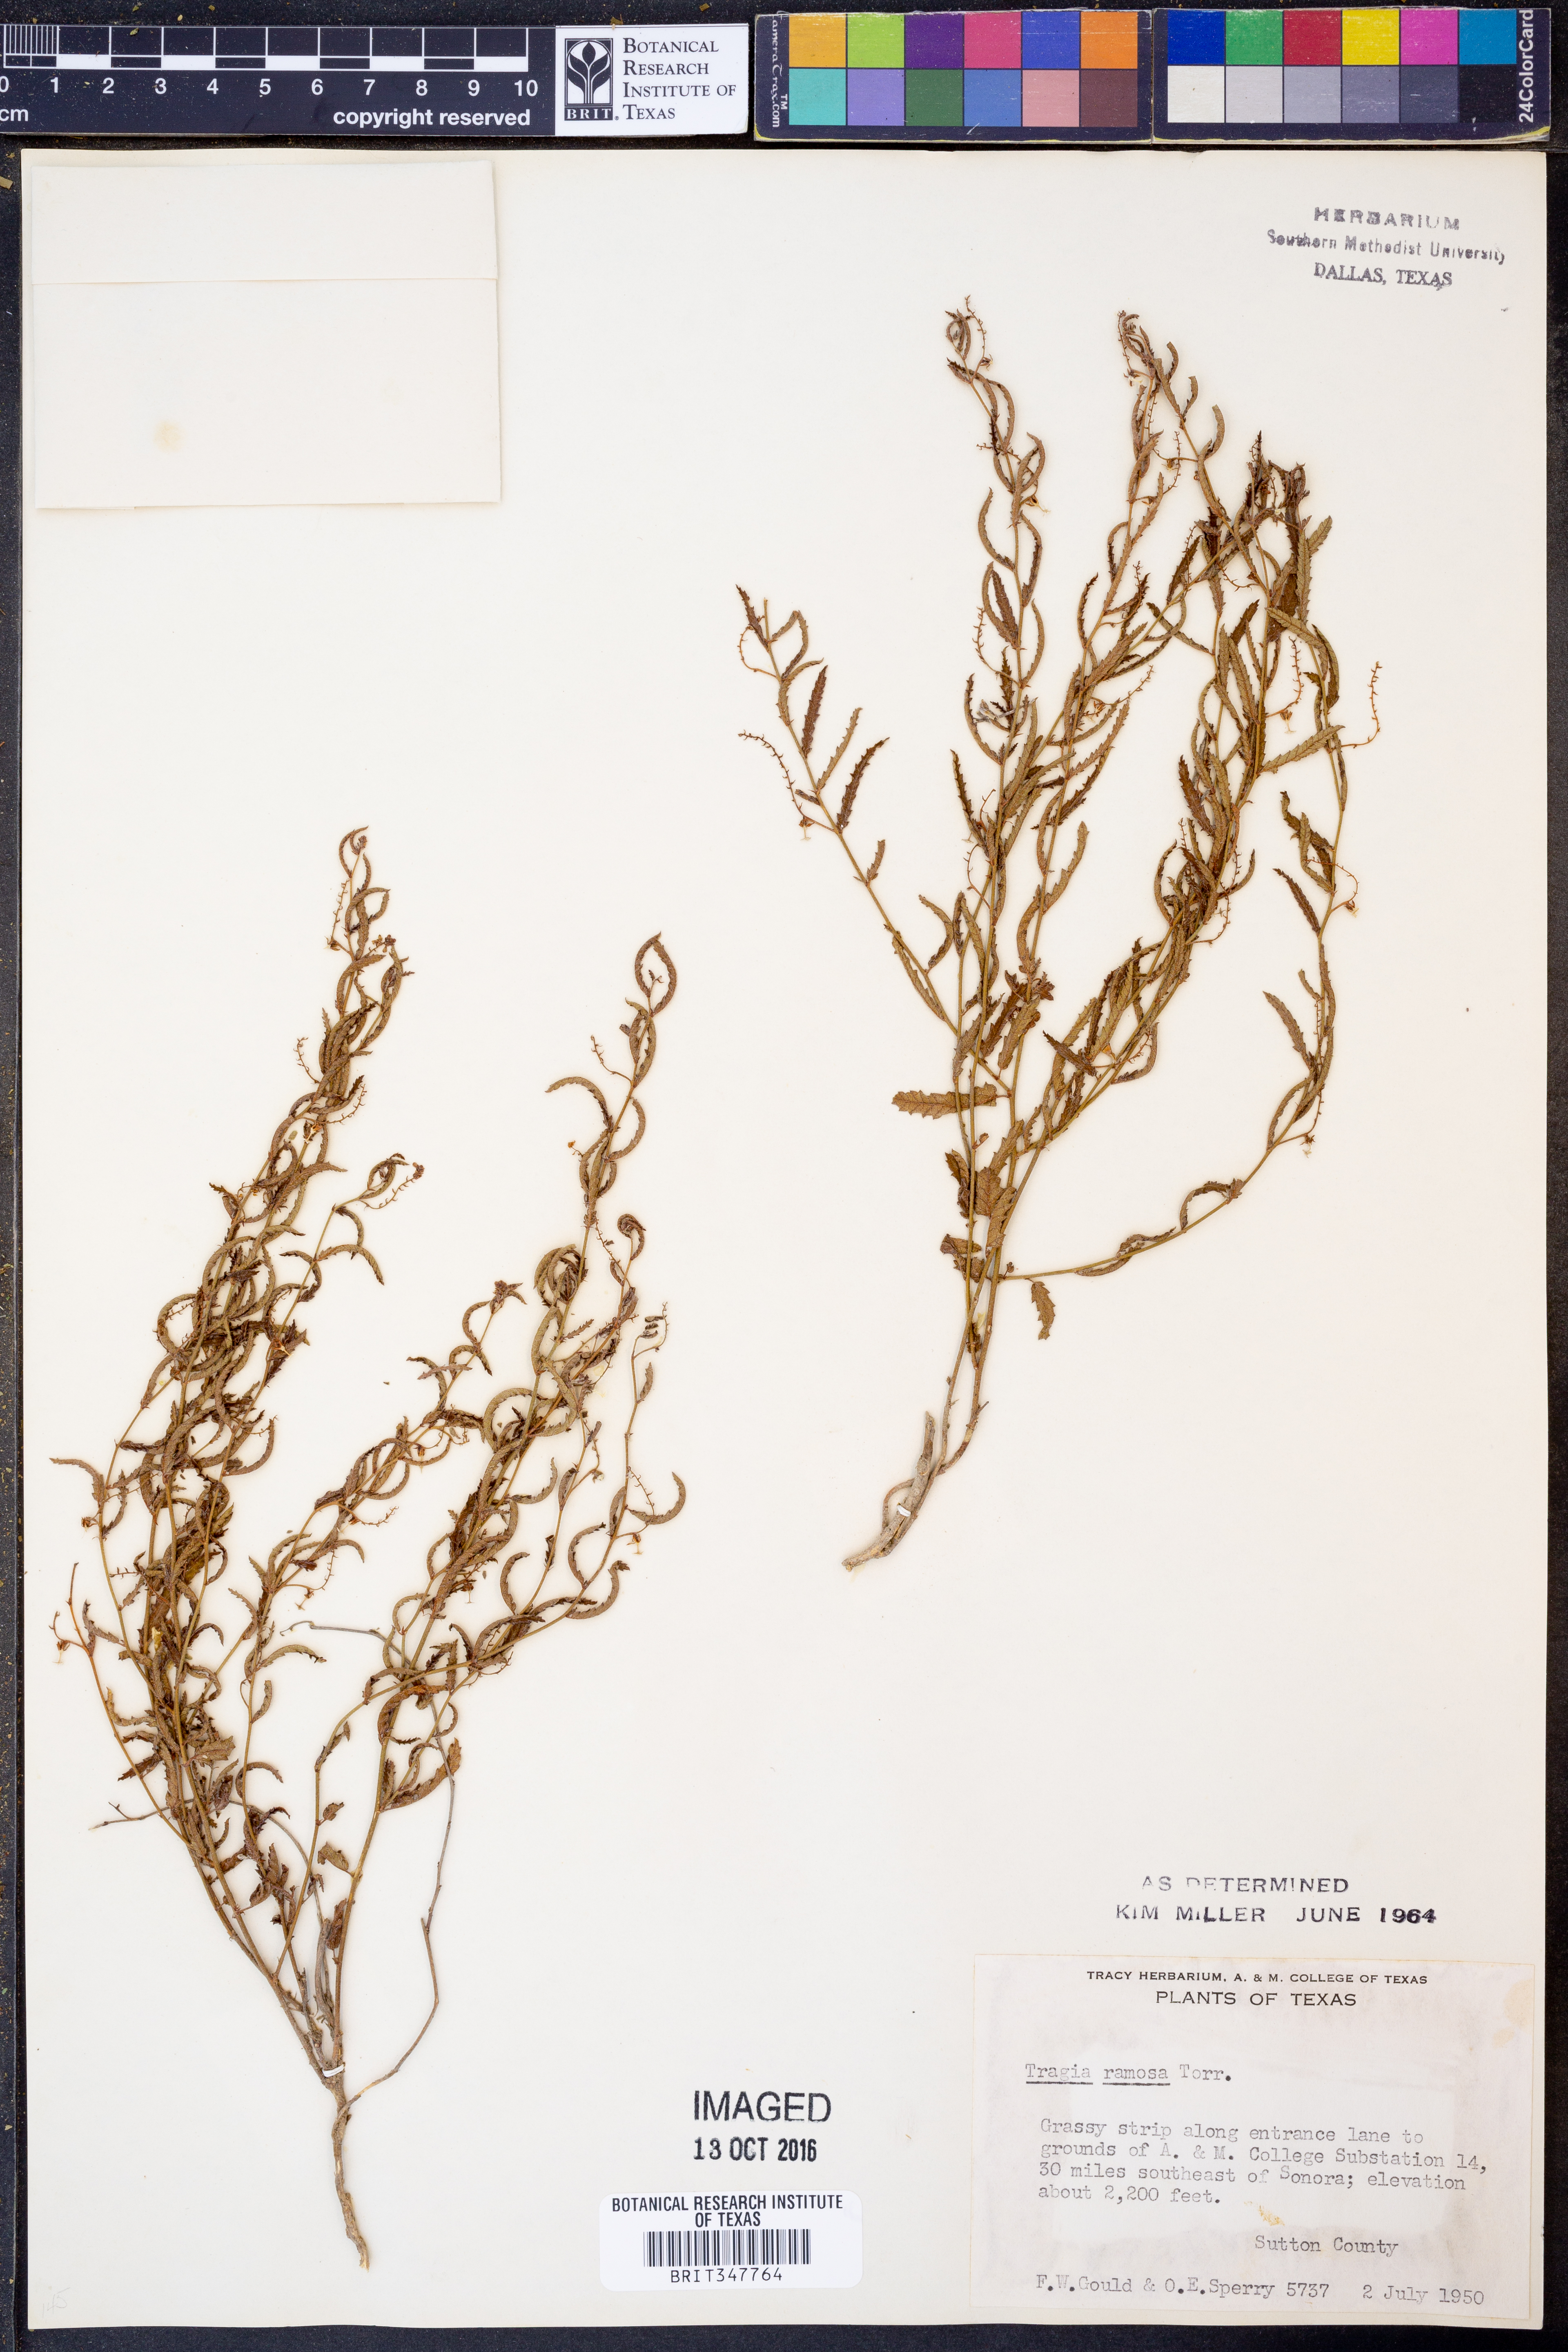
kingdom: Plantae
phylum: Tracheophyta
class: Magnoliopsida
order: Malpighiales
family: Euphorbiaceae
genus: Tragia
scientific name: Tragia ramosa
